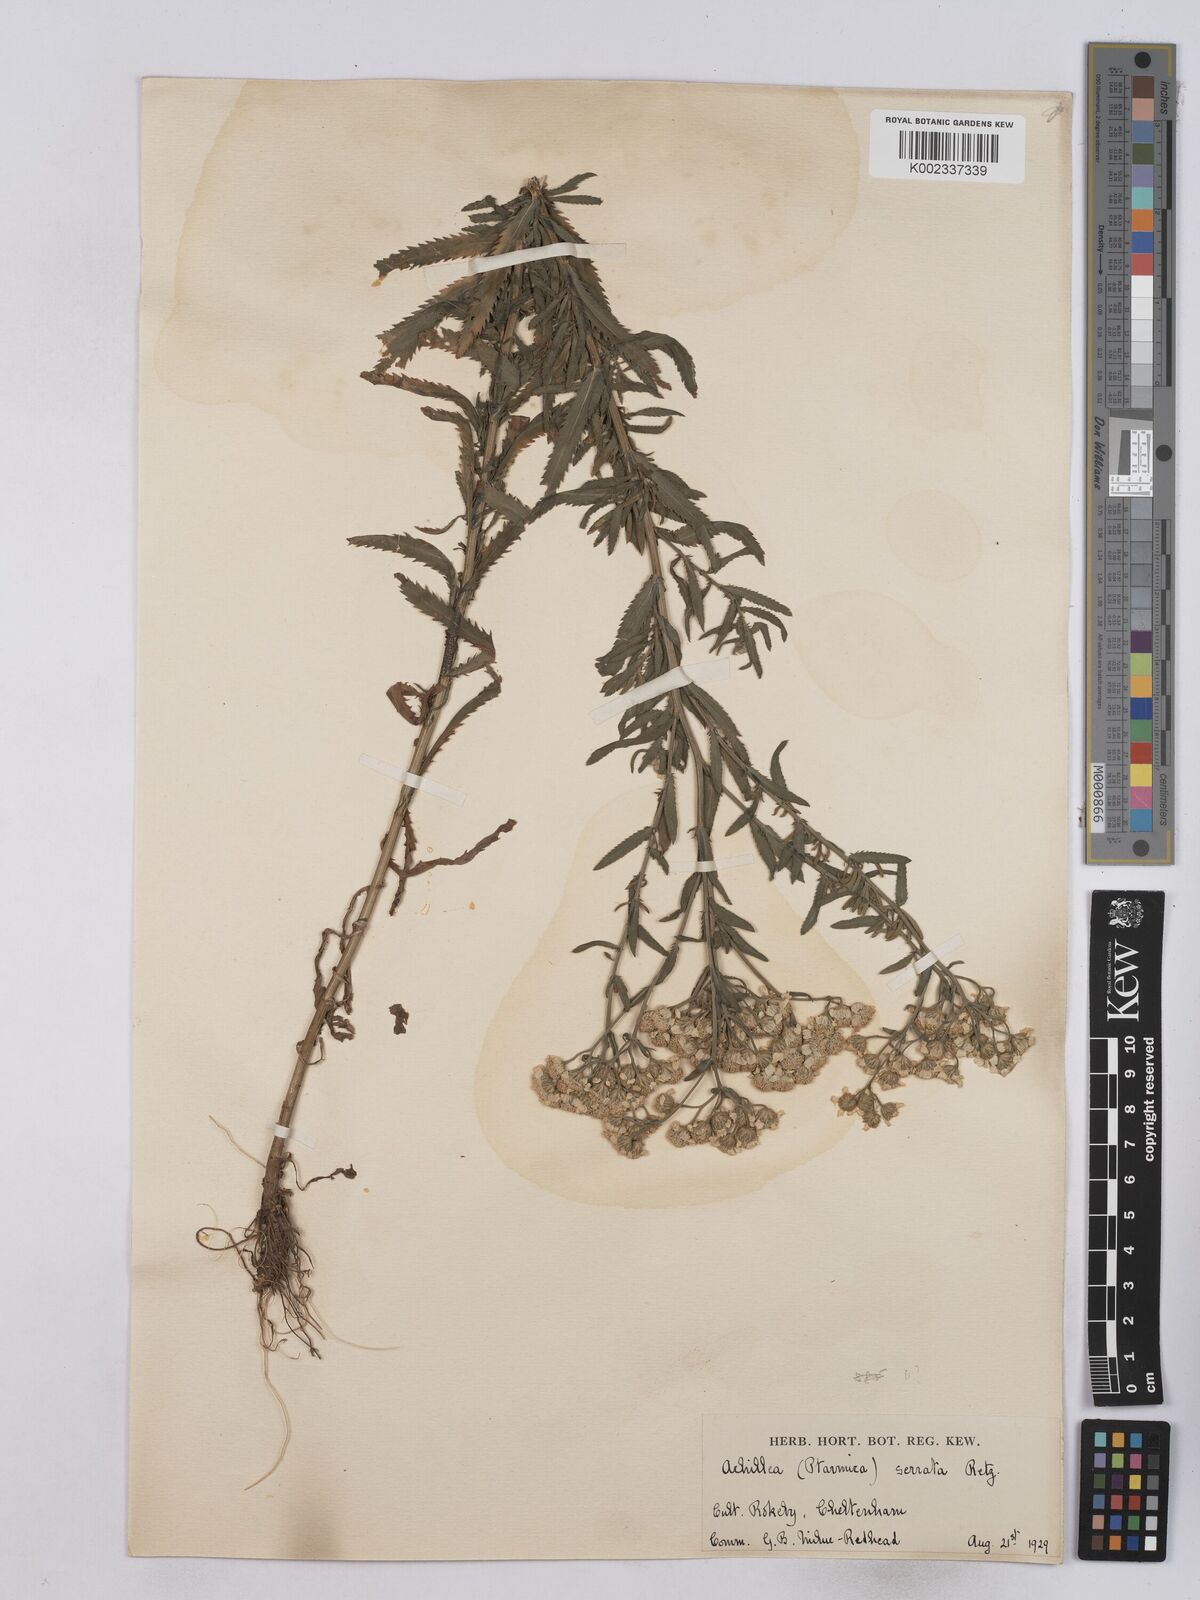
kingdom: Plantae
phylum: Tracheophyta
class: Magnoliopsida
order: Asterales
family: Asteraceae
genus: Achillea
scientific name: Achillea serrata
